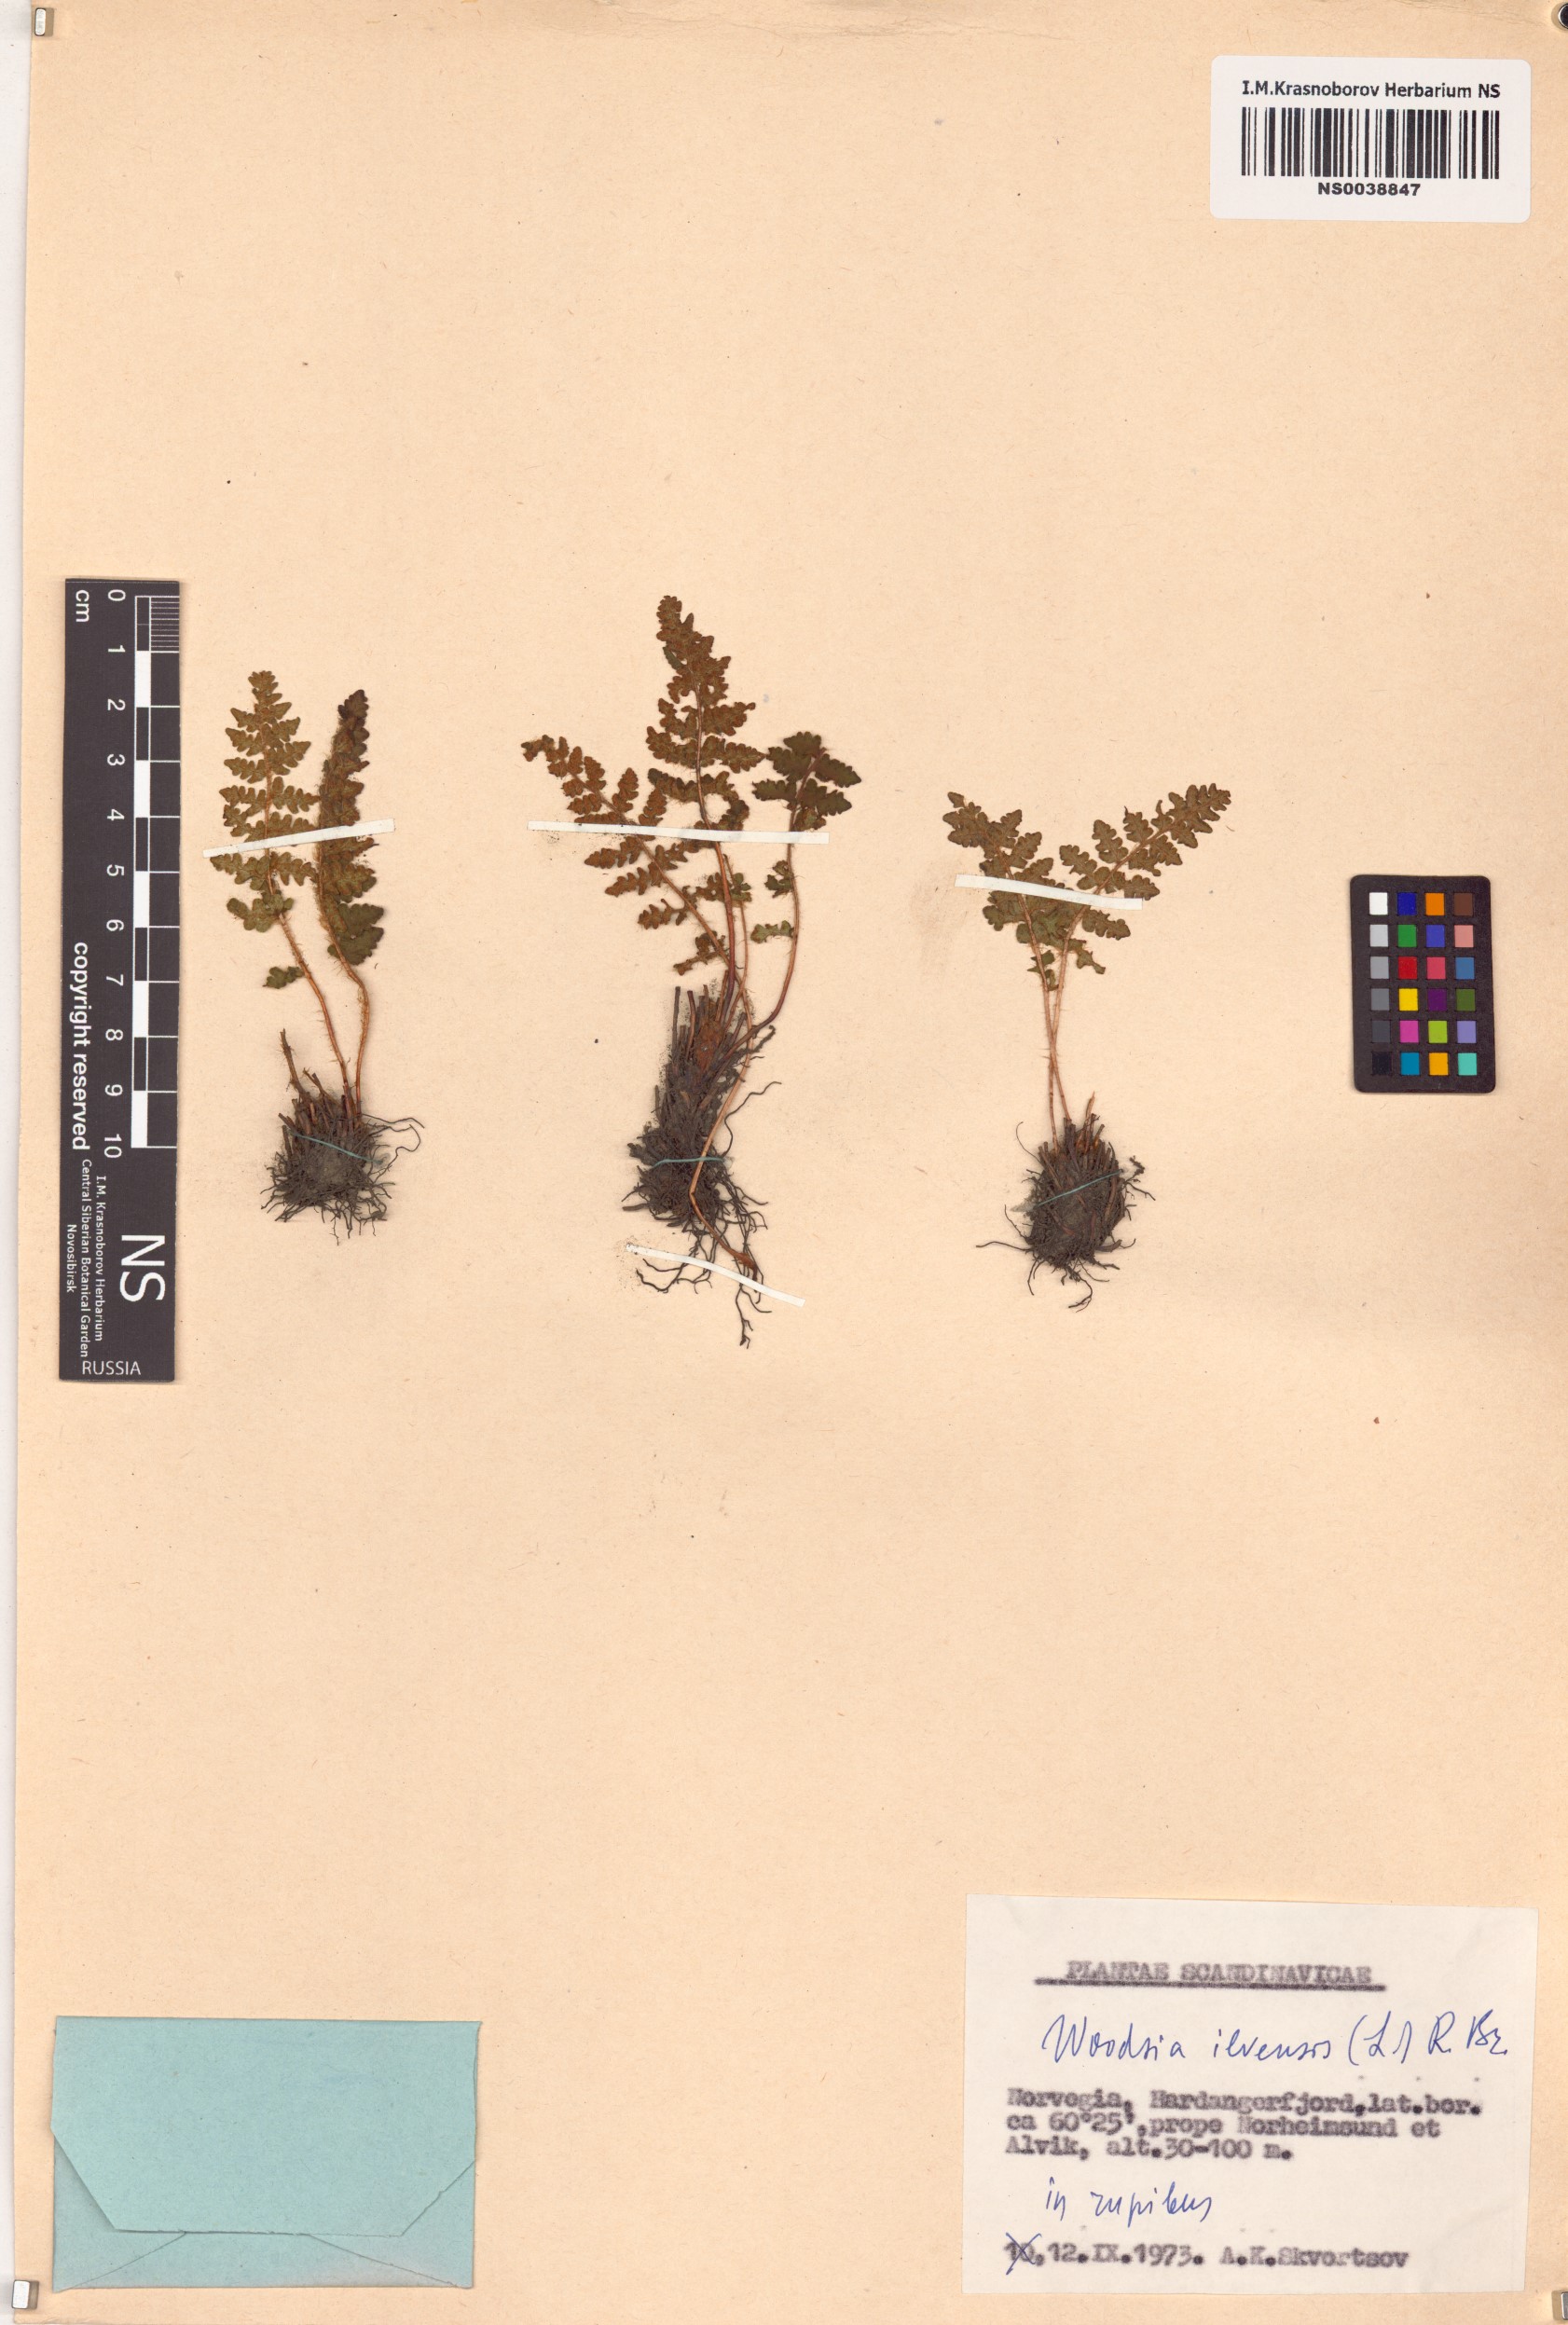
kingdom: Plantae
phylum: Tracheophyta
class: Polypodiopsida
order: Polypodiales
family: Woodsiaceae
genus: Woodsia
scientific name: Woodsia ilvensis
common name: Fragrant woodsia
